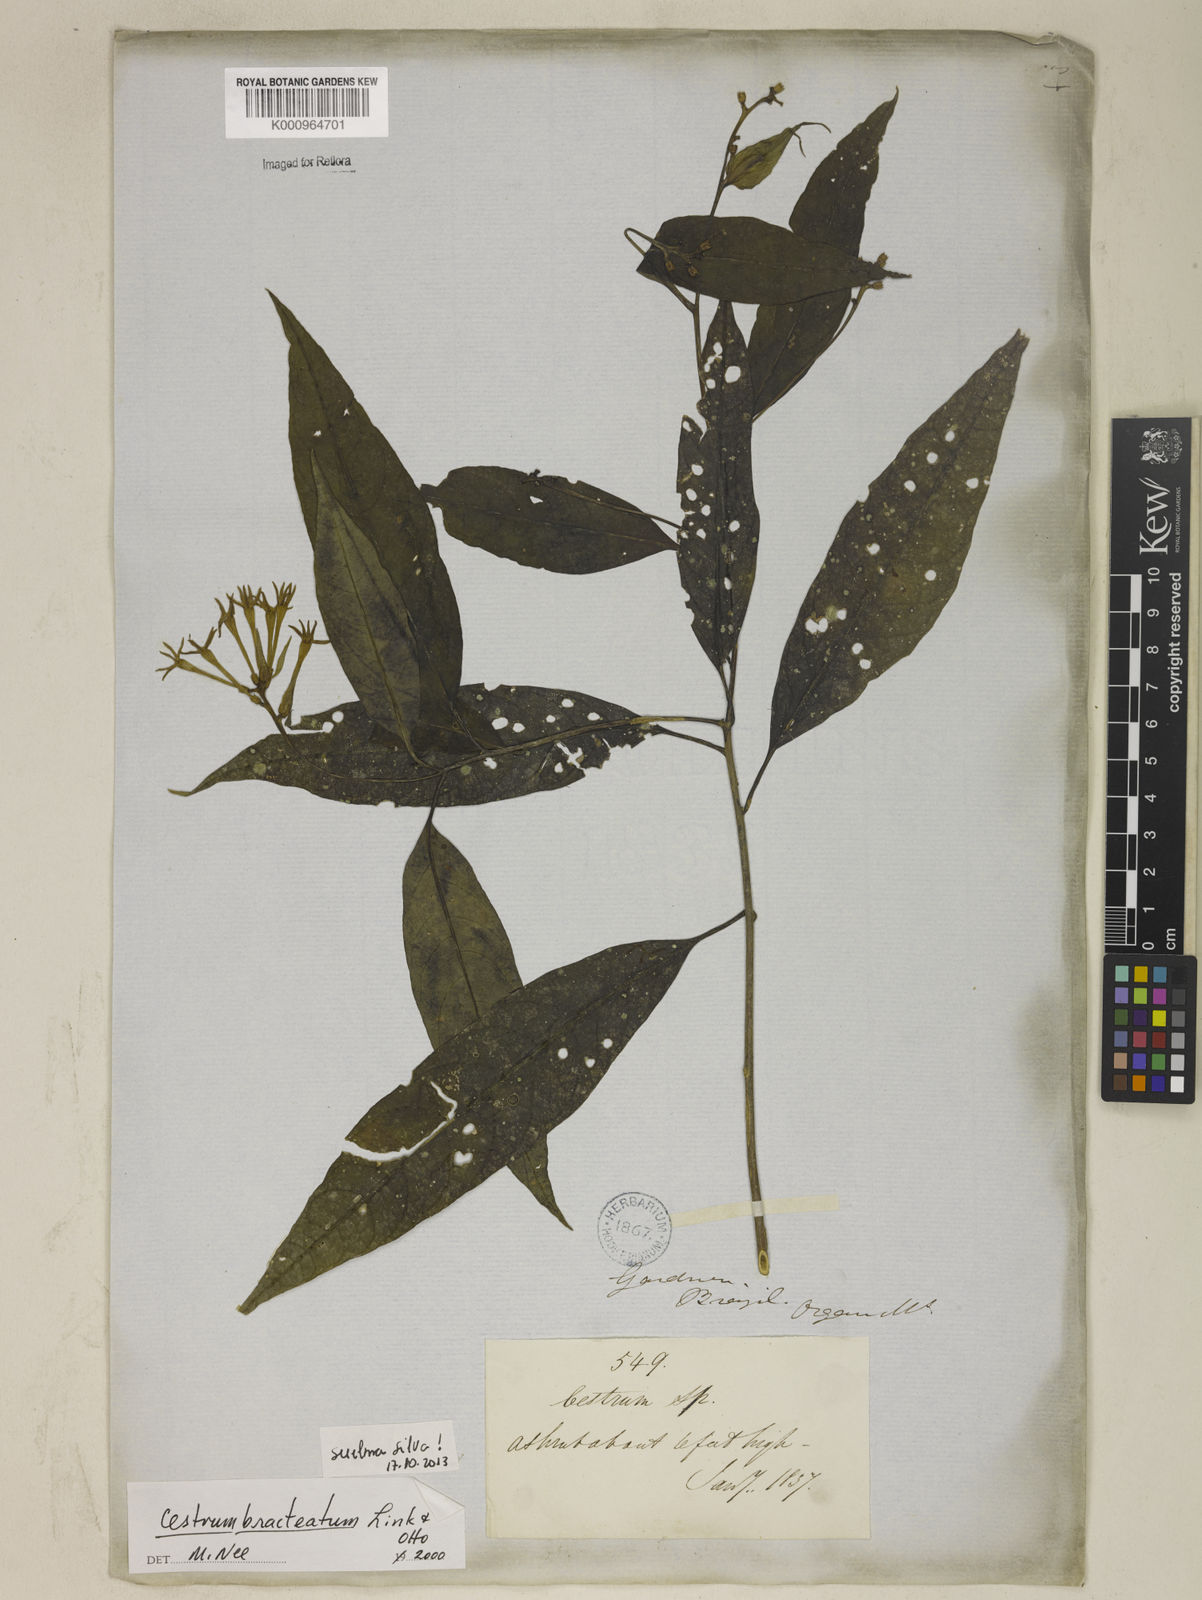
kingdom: Plantae
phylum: Tracheophyta
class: Magnoliopsida
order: Solanales
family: Solanaceae
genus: Cestrum
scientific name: Cestrum bracteatum
